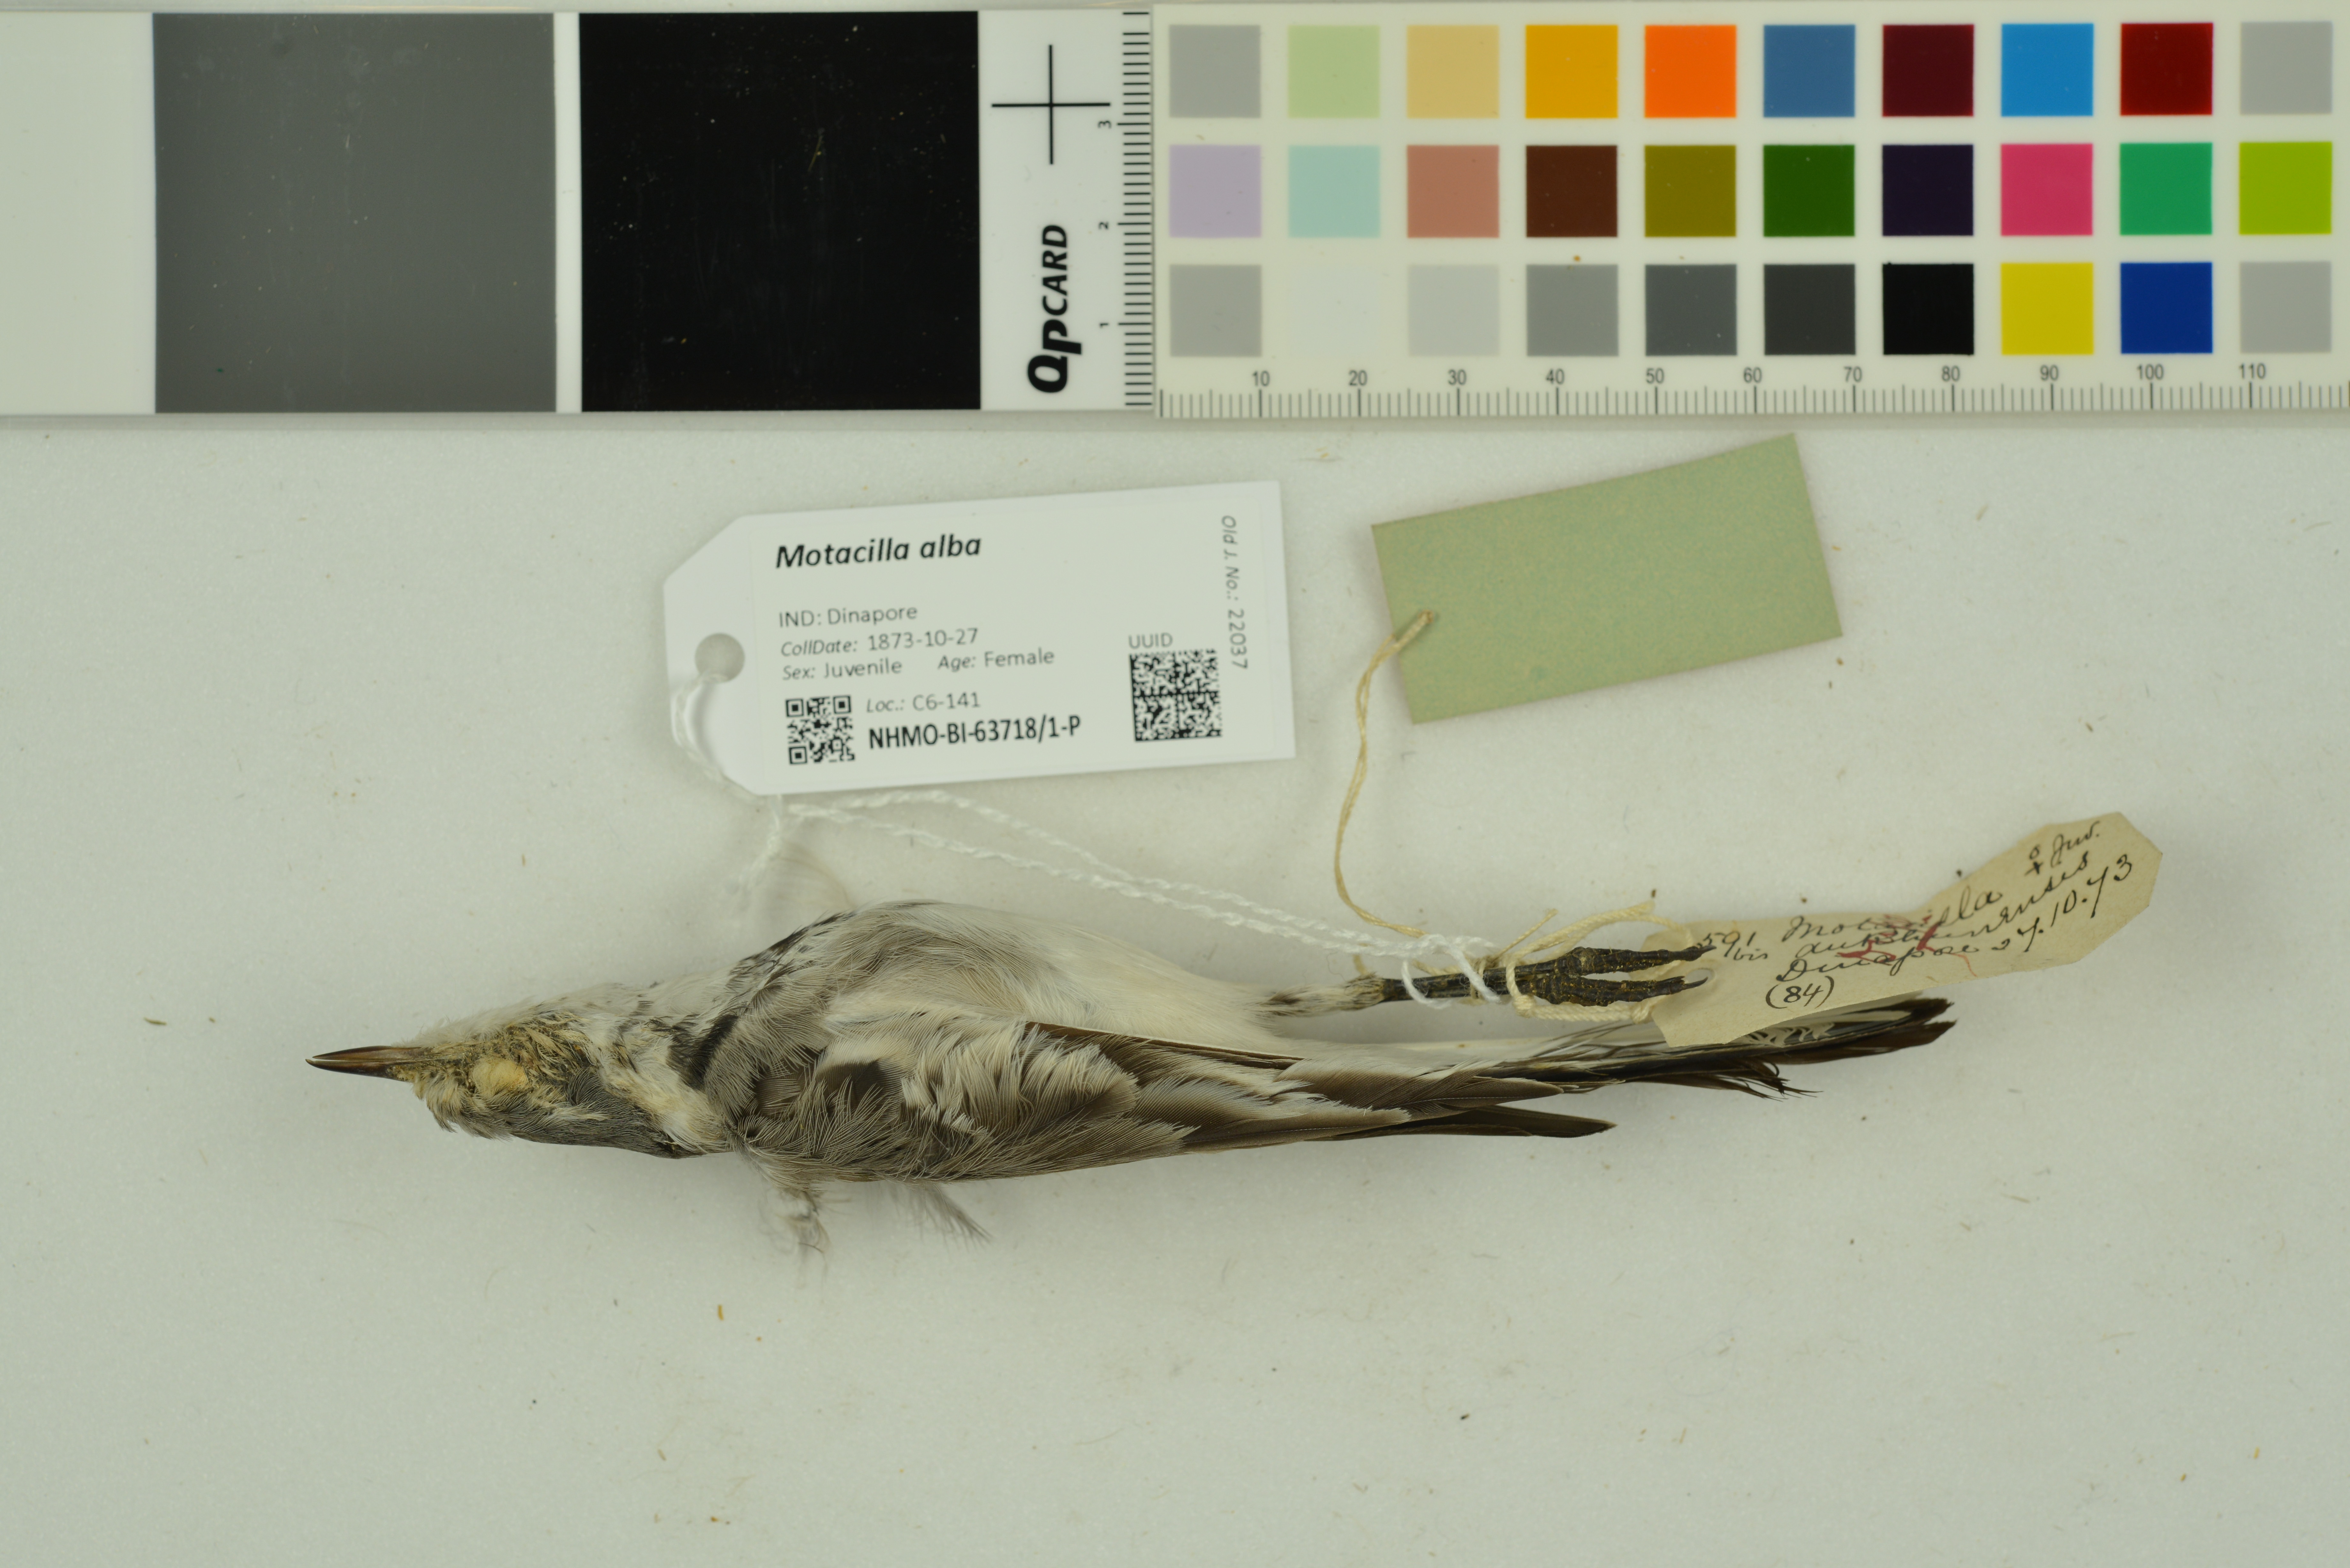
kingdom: Animalia
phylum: Chordata
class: Aves
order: Passeriformes
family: Motacillidae
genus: Motacilla
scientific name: Motacilla alba
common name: White wagtail
